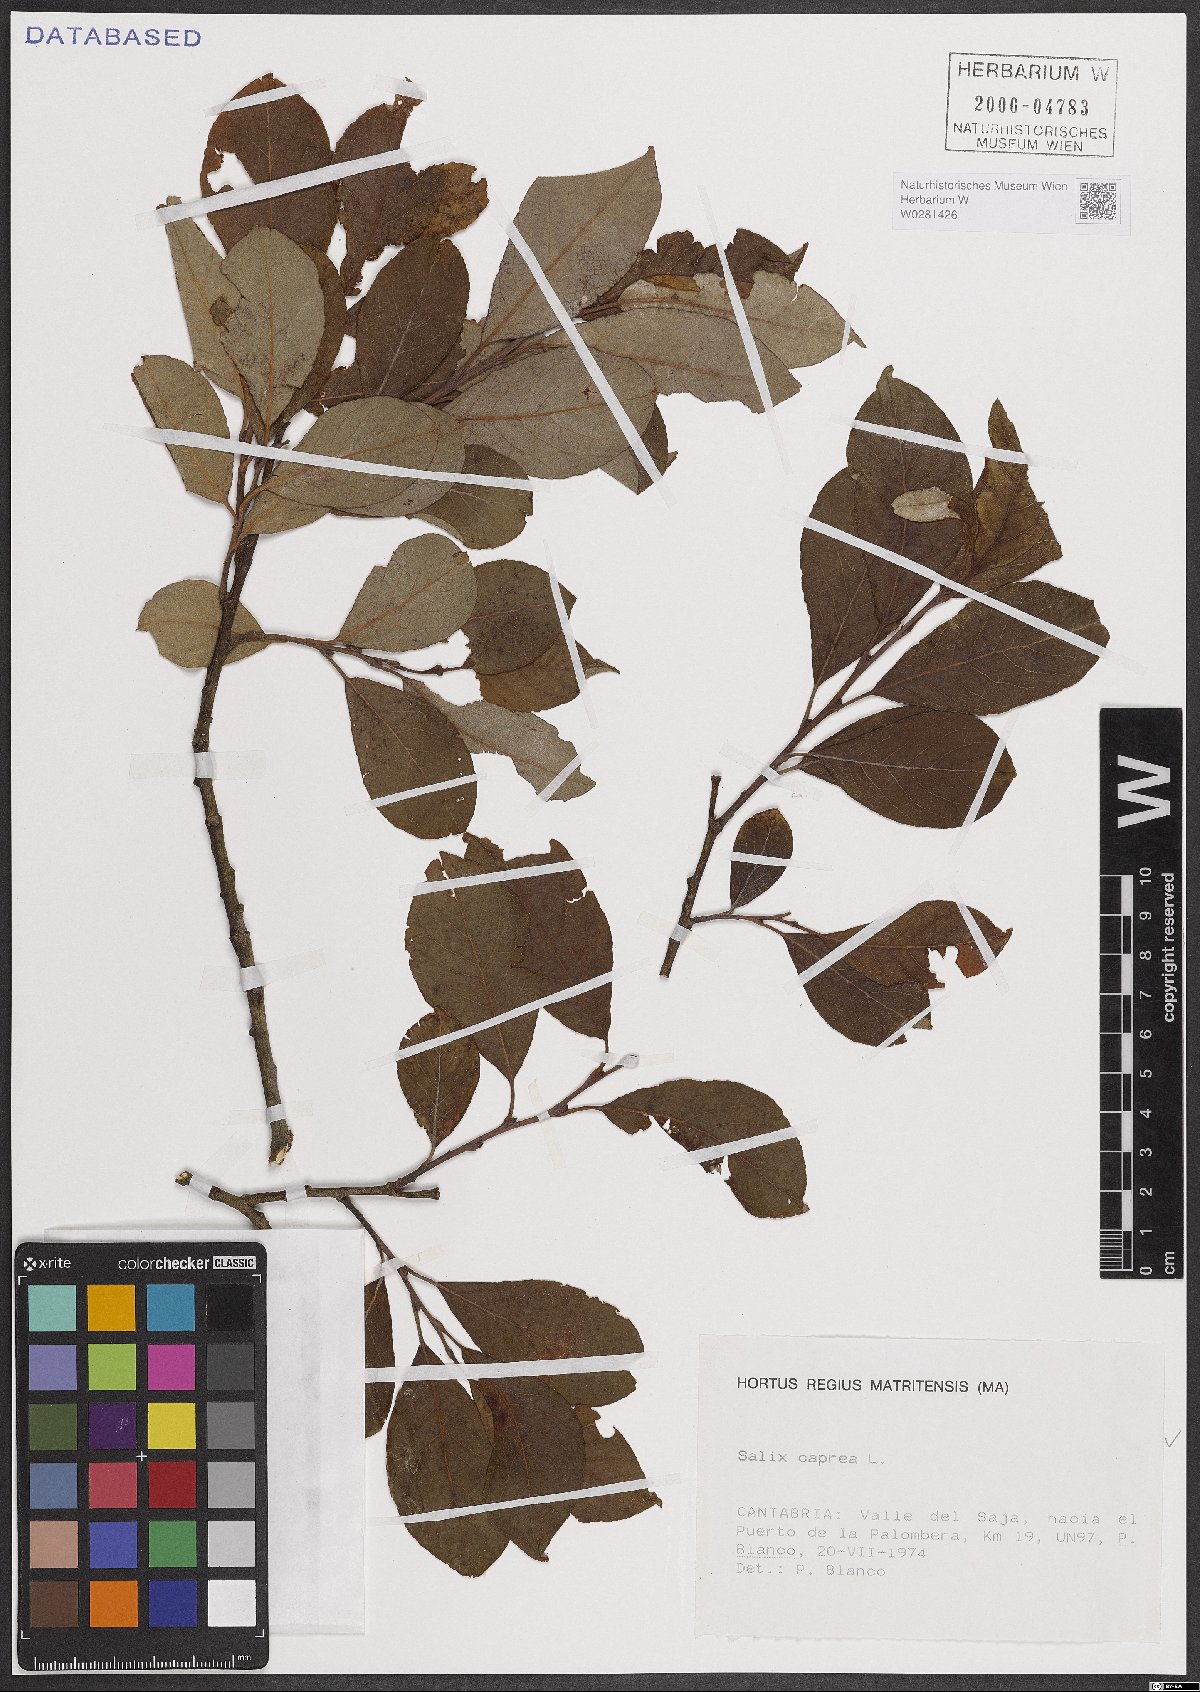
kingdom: Plantae
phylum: Tracheophyta
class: Magnoliopsida
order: Malpighiales
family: Salicaceae
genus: Salix
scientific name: Salix caprea
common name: Goat willow
